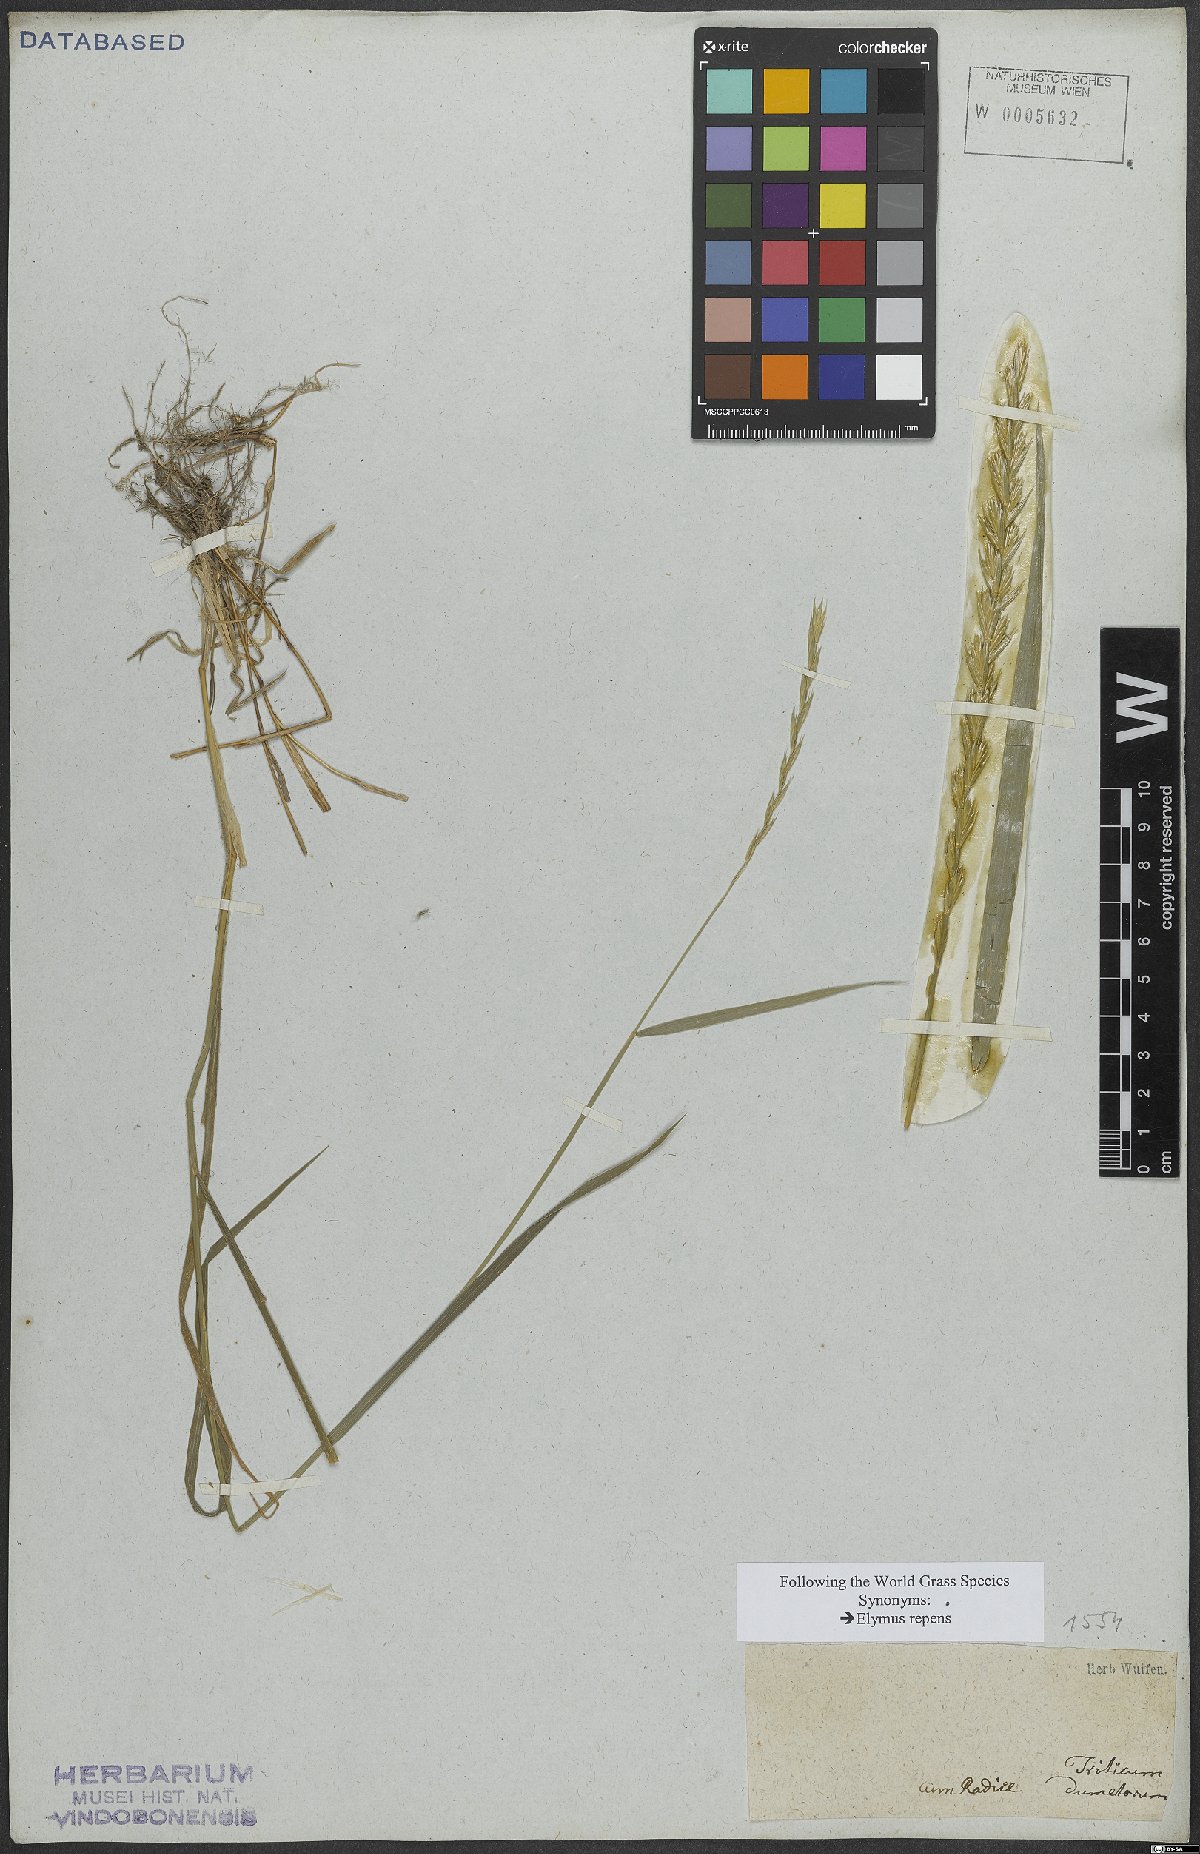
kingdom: Plantae
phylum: Tracheophyta
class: Liliopsida
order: Poales
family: Poaceae
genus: Elymus
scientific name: Elymus repens
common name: Quackgrass
